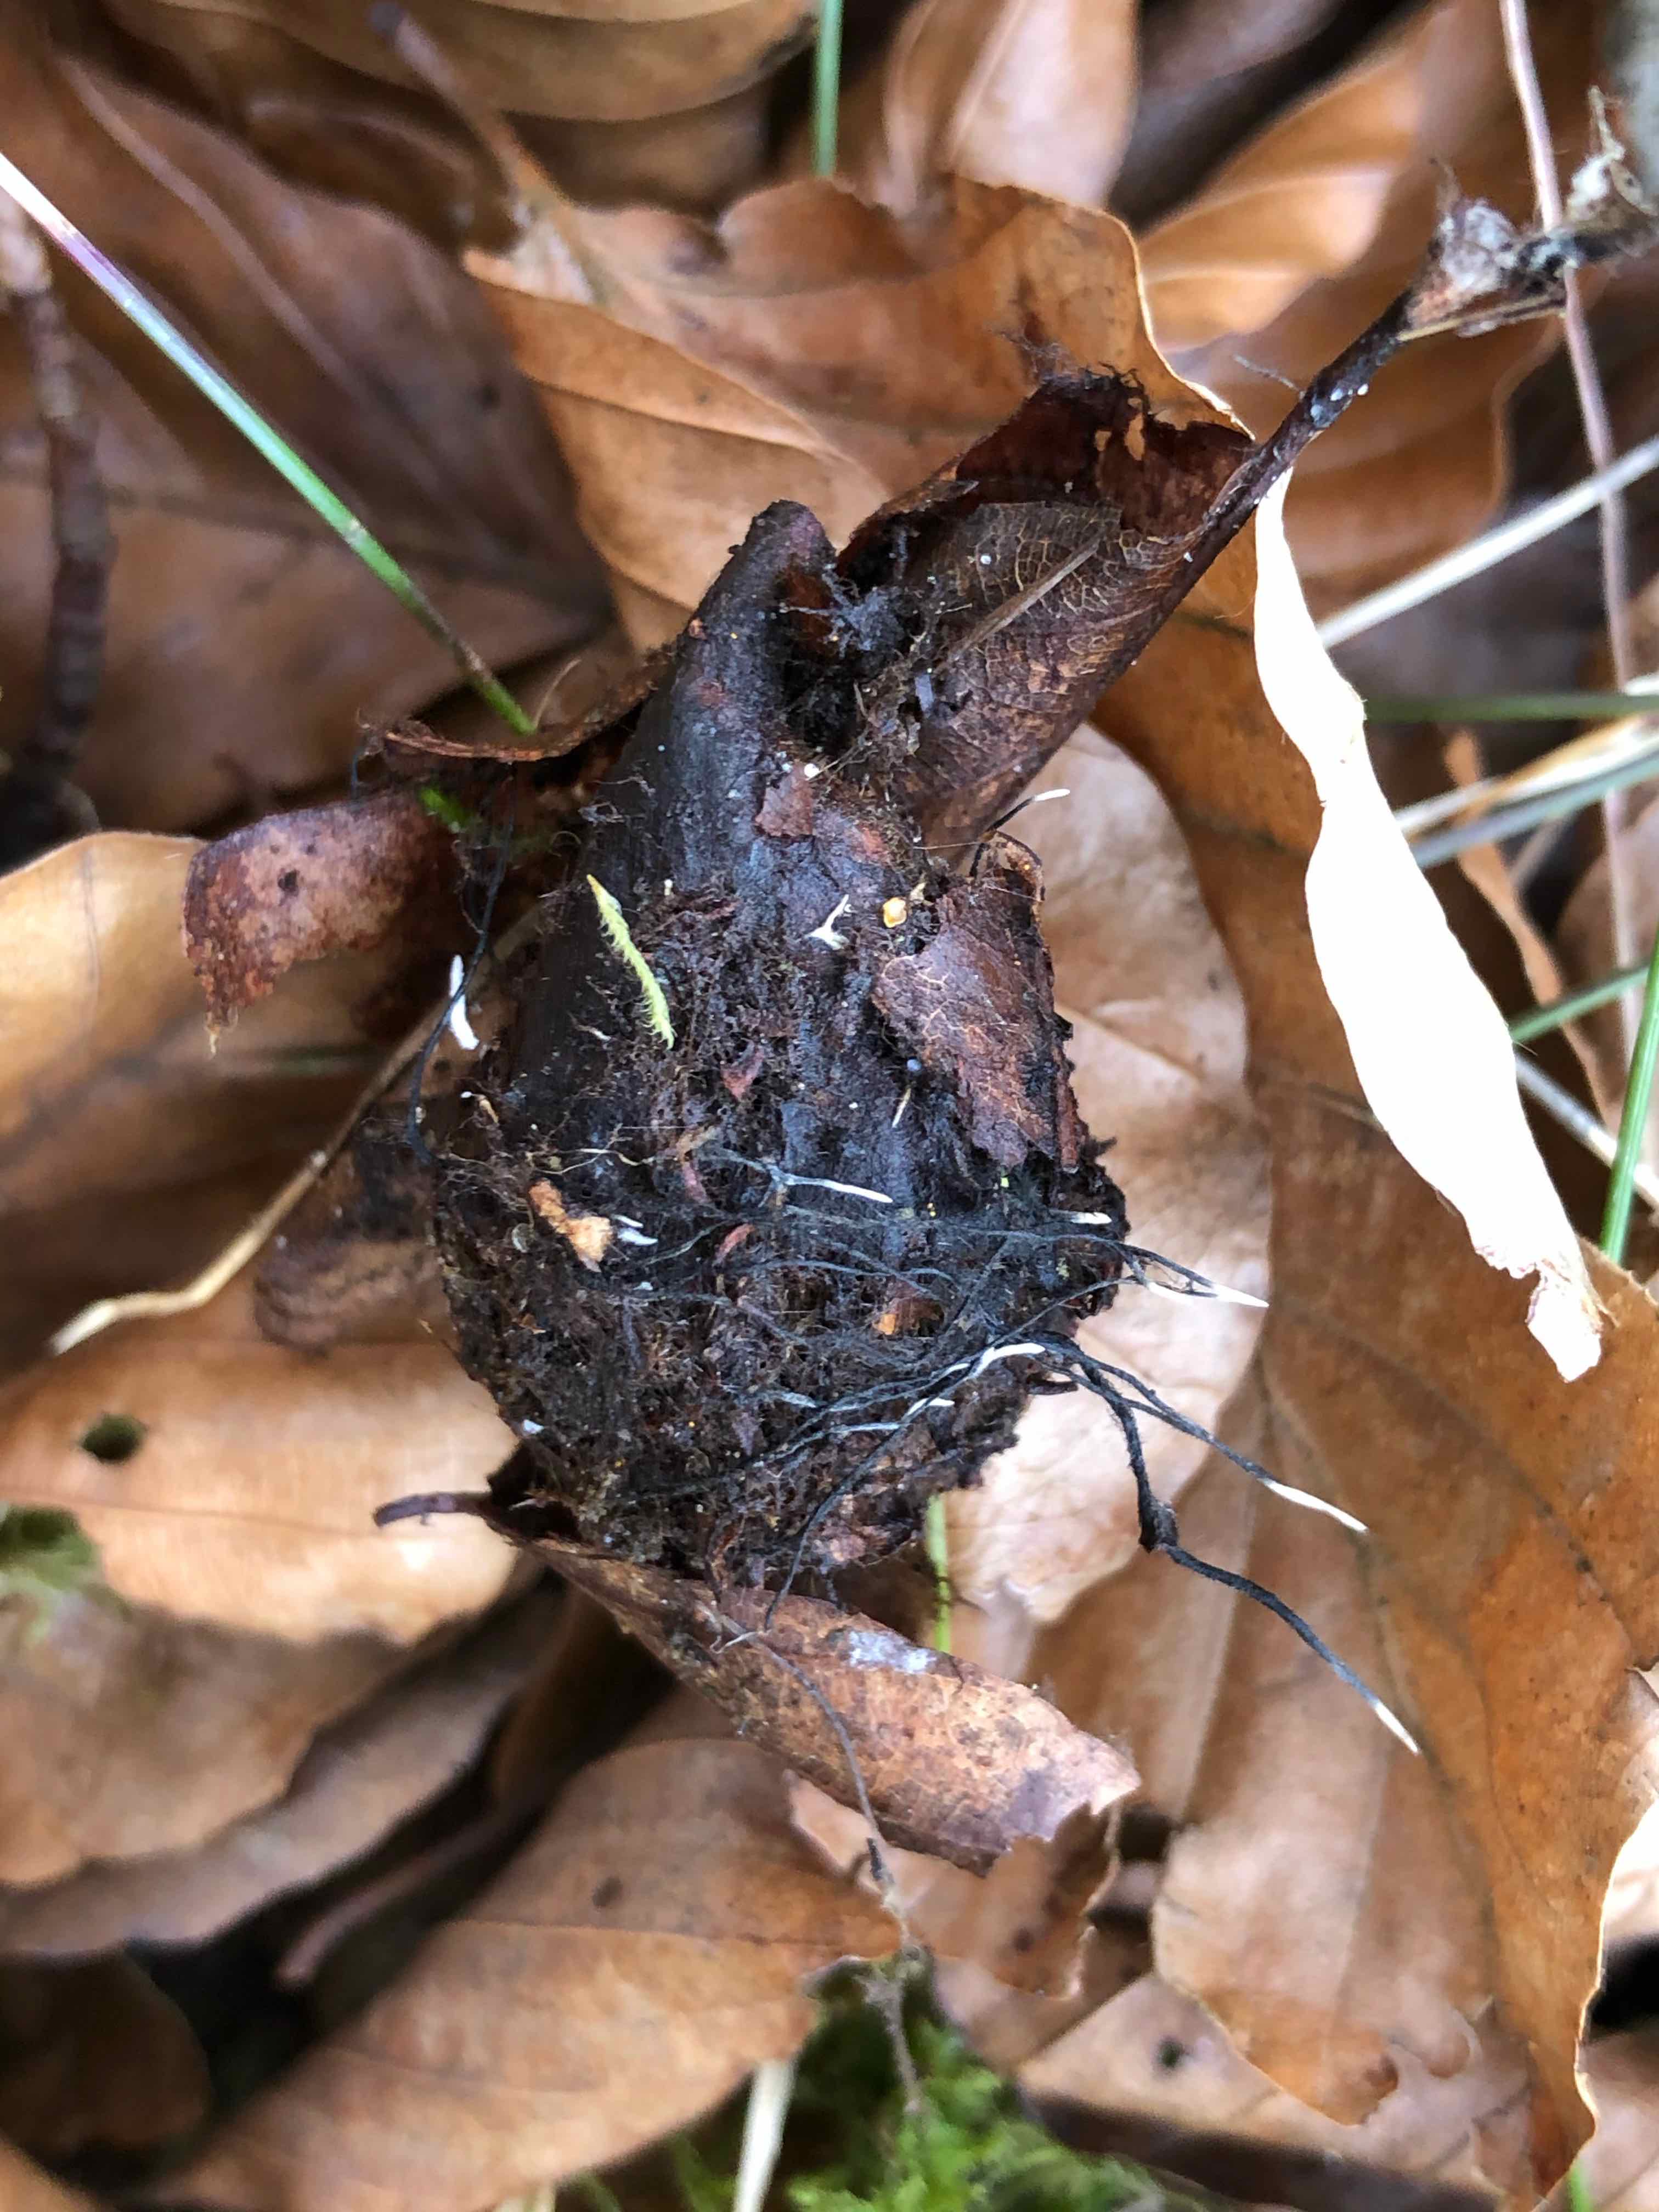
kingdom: Fungi
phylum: Ascomycota
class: Sordariomycetes
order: Xylariales
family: Xylariaceae
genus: Xylaria
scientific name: Xylaria carpophila
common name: bogskål-stødsvamp
